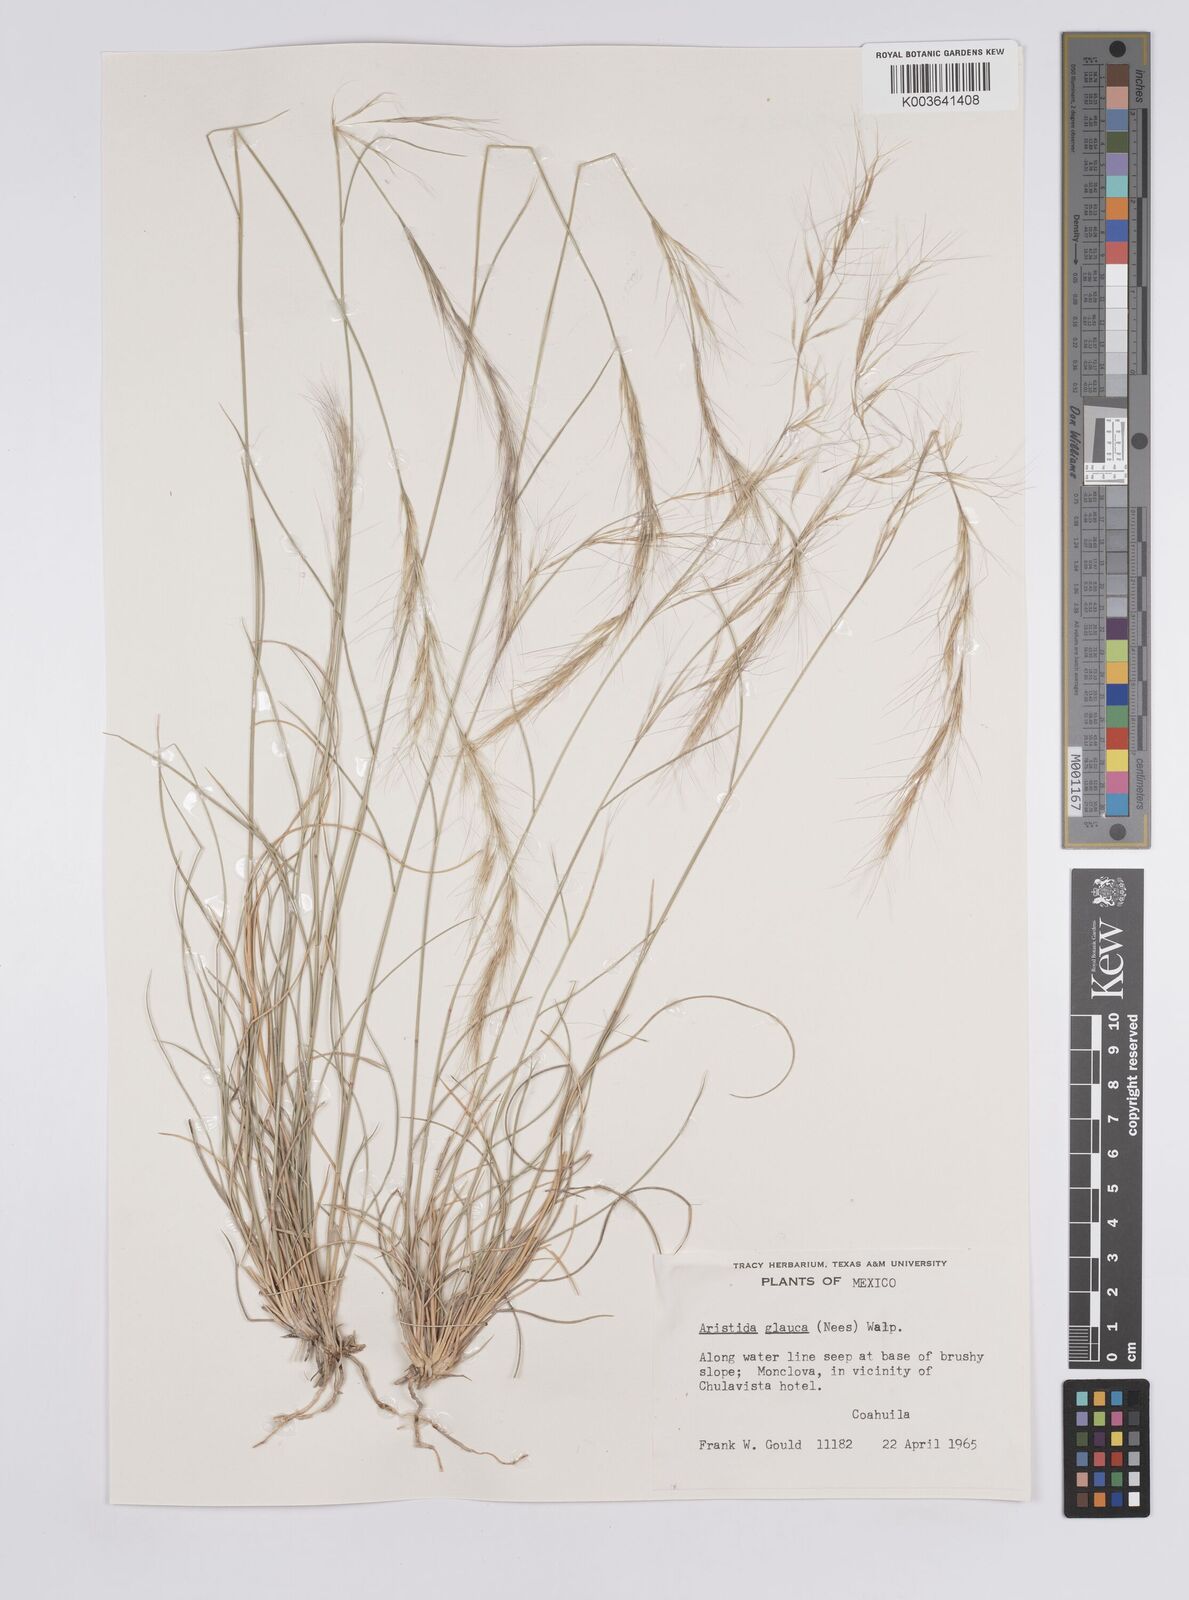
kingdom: Plantae
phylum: Tracheophyta
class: Liliopsida
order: Poales
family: Poaceae
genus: Aristida
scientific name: Aristida purpurea
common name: Purple threeawn
